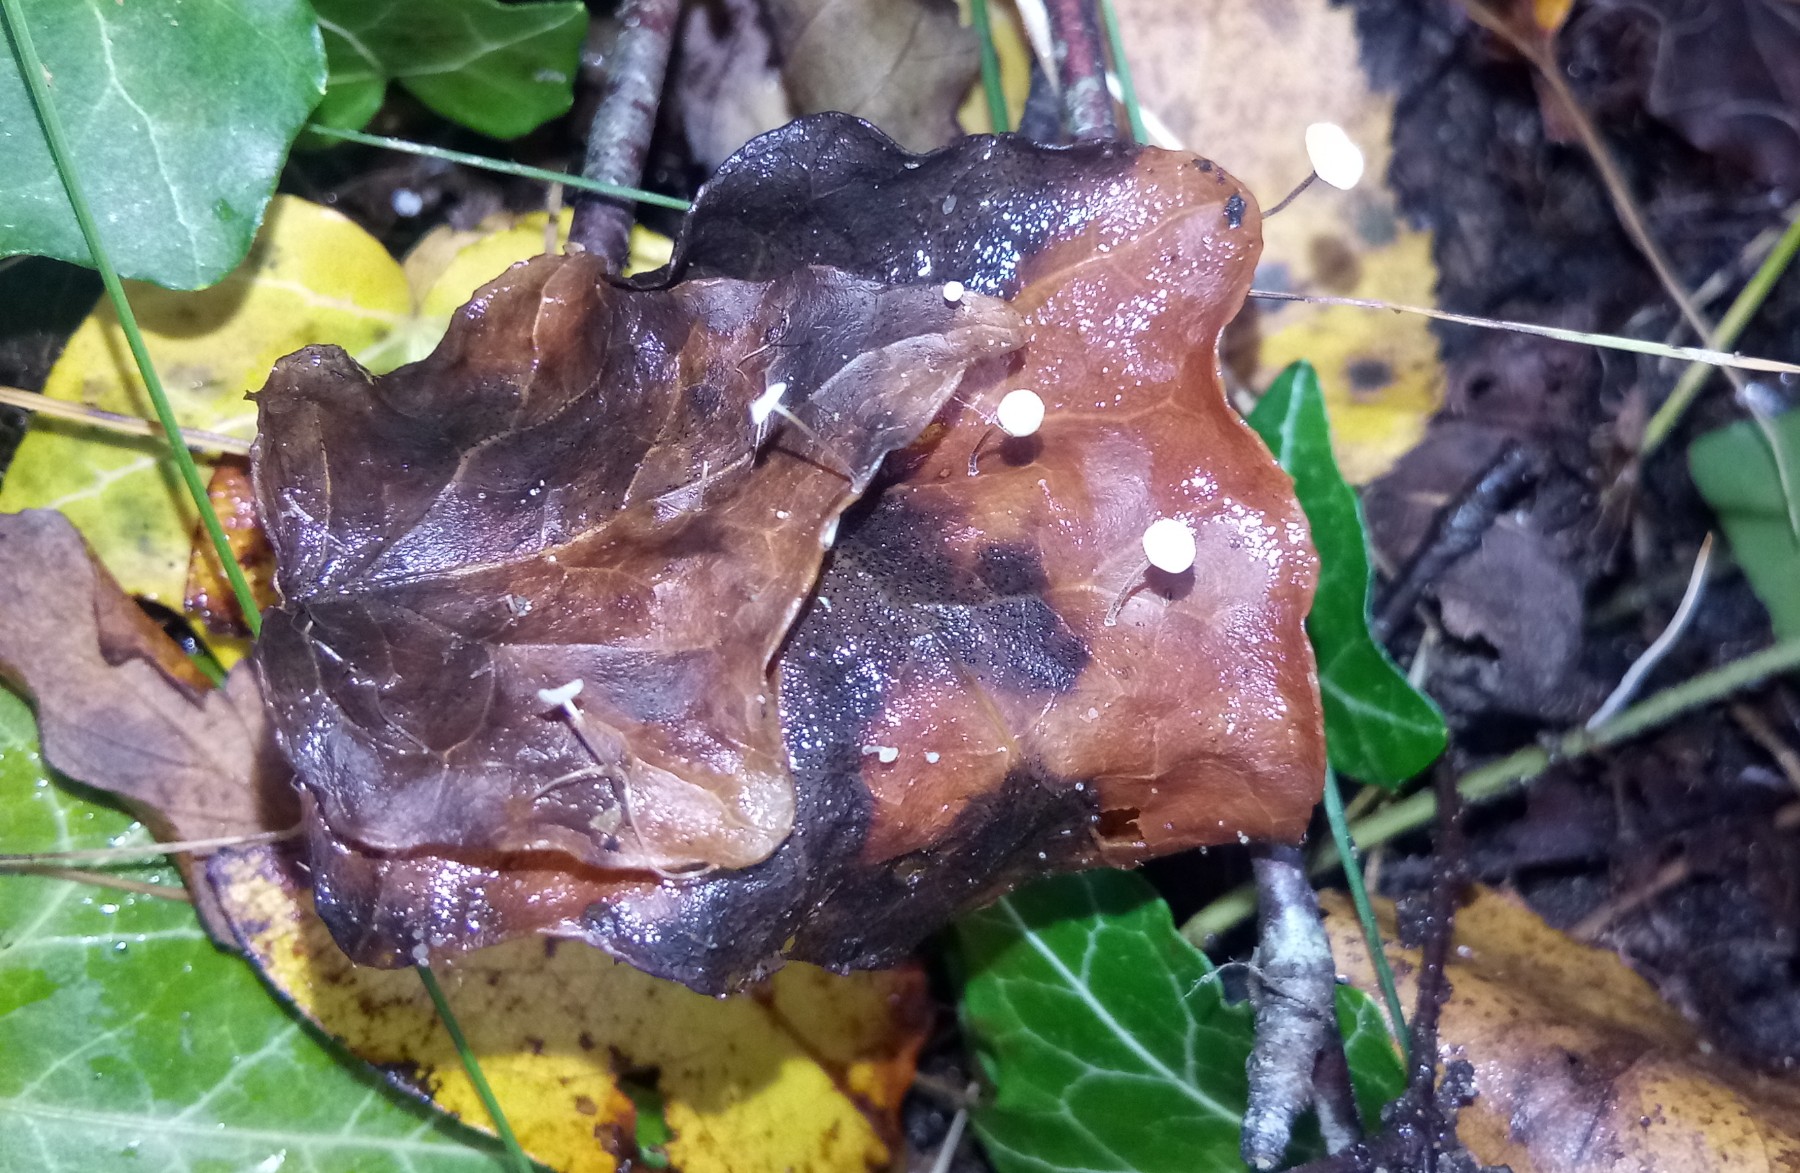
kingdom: Fungi
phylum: Basidiomycota
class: Agaricomycetes
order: Agaricales
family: Marasmiaceae
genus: Marasmius
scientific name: Marasmius epiphylloides
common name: vedbend-bruskhat
